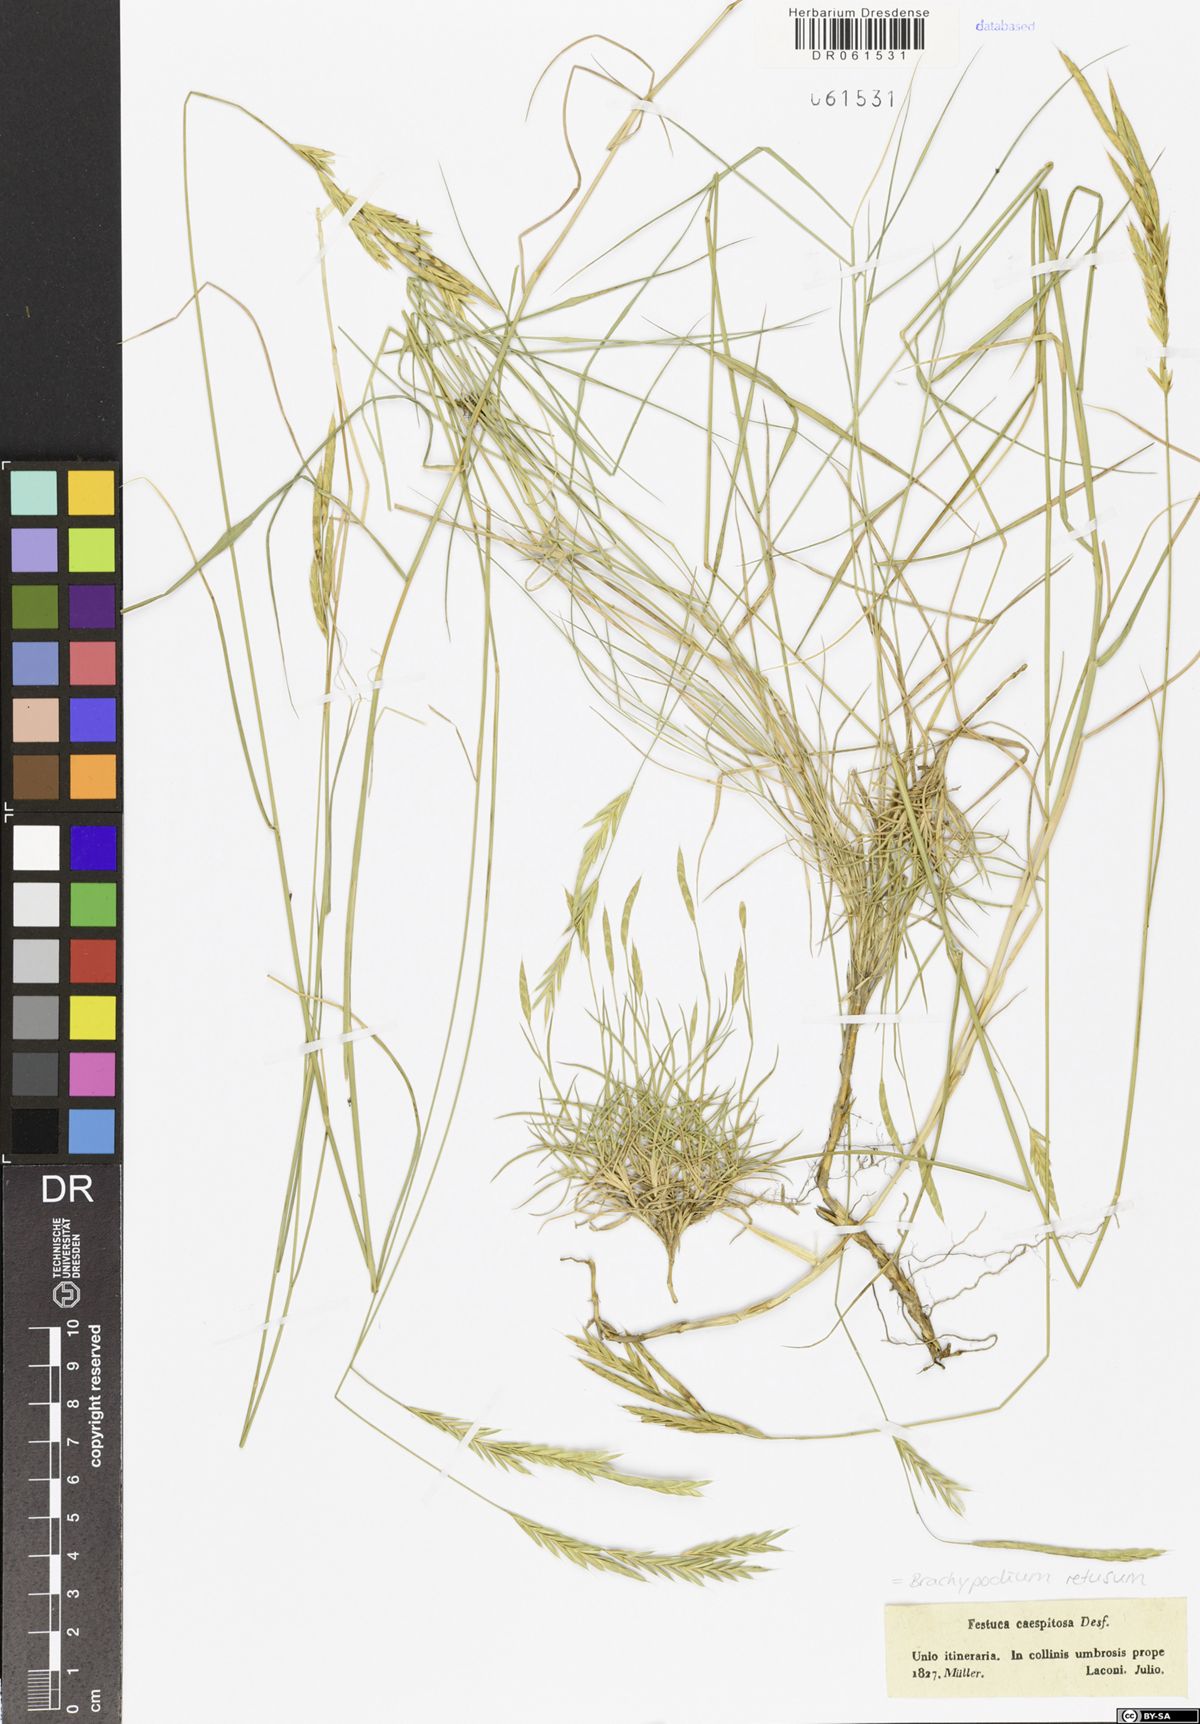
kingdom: Plantae
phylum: Tracheophyta
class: Liliopsida
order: Poales
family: Poaceae
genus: Brachypodium
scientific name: Brachypodium retusum
